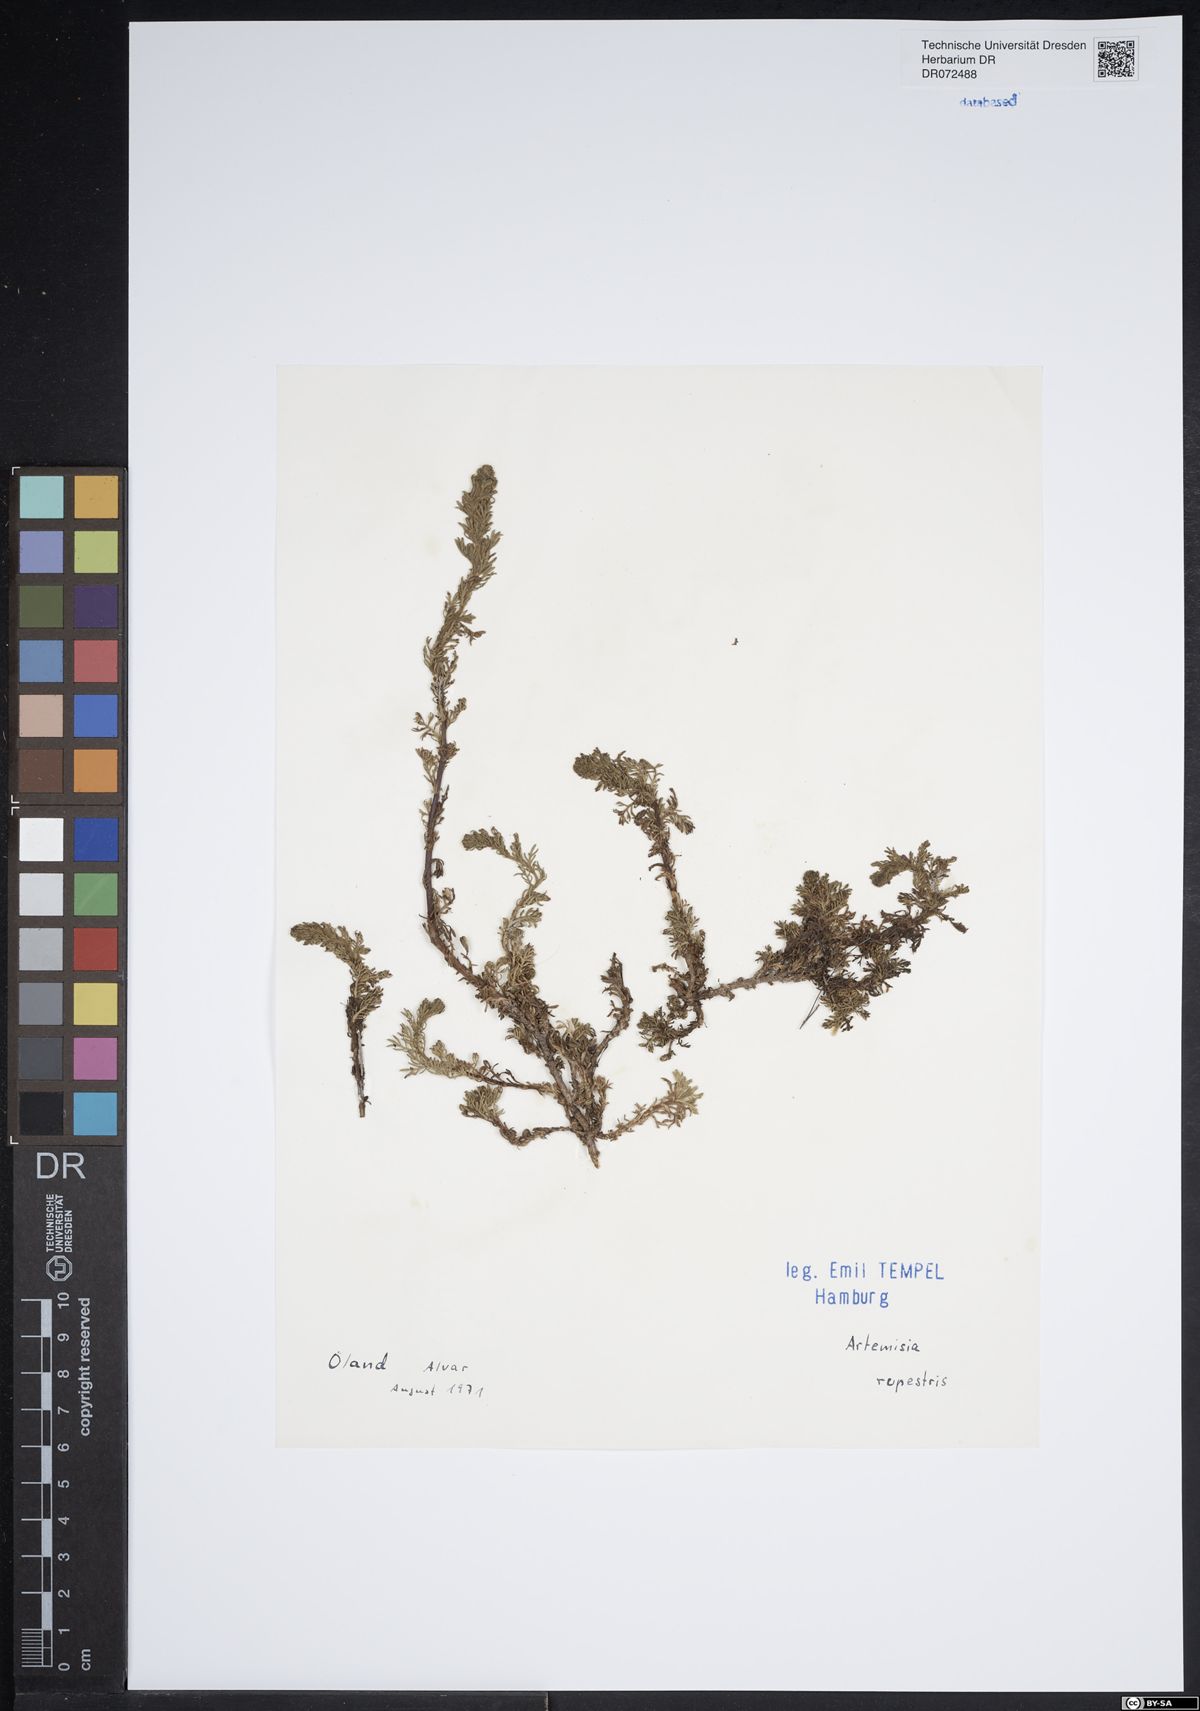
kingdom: Plantae
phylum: Tracheophyta
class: Magnoliopsida
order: Asterales
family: Asteraceae
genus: Artemisia
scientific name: Artemisia rupestris
